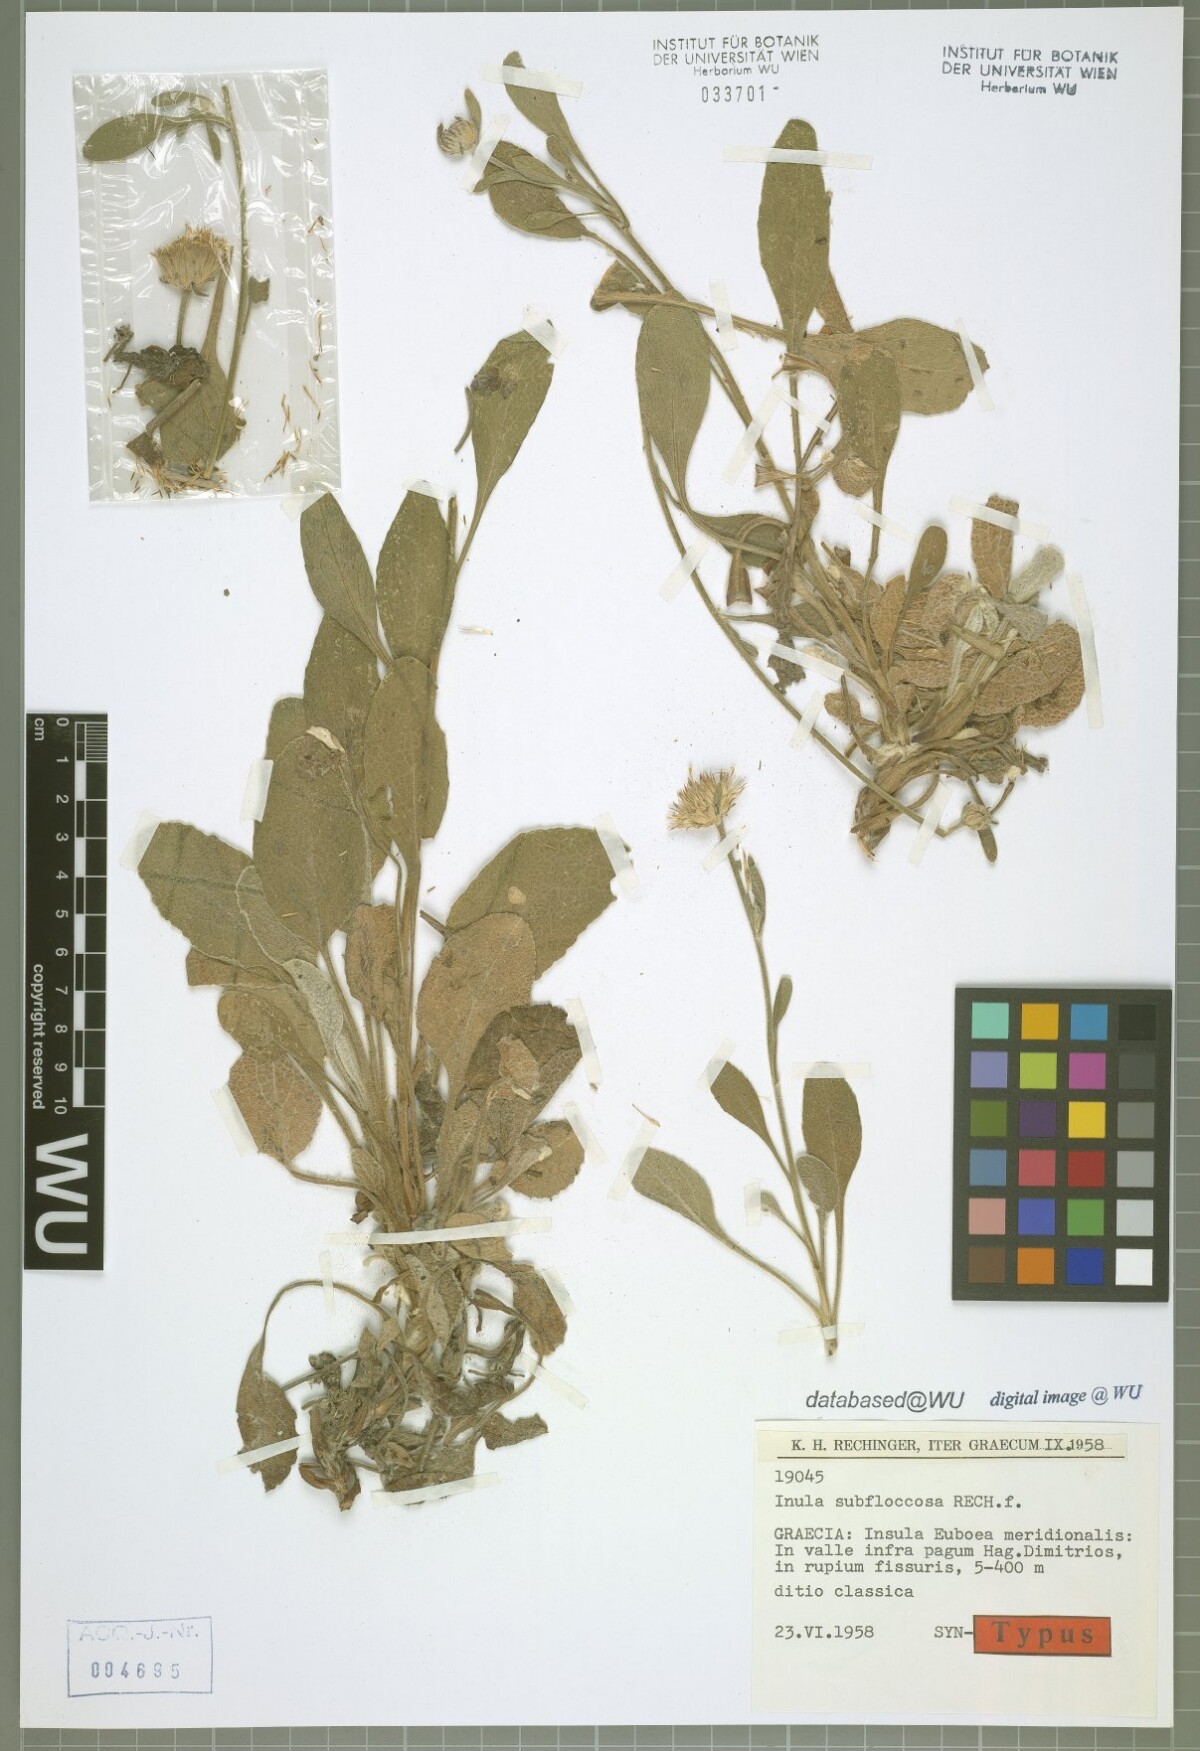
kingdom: Plantae
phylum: Tracheophyta
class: Magnoliopsida
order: Asterales
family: Asteraceae
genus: Inula
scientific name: Inula subfloccosa
